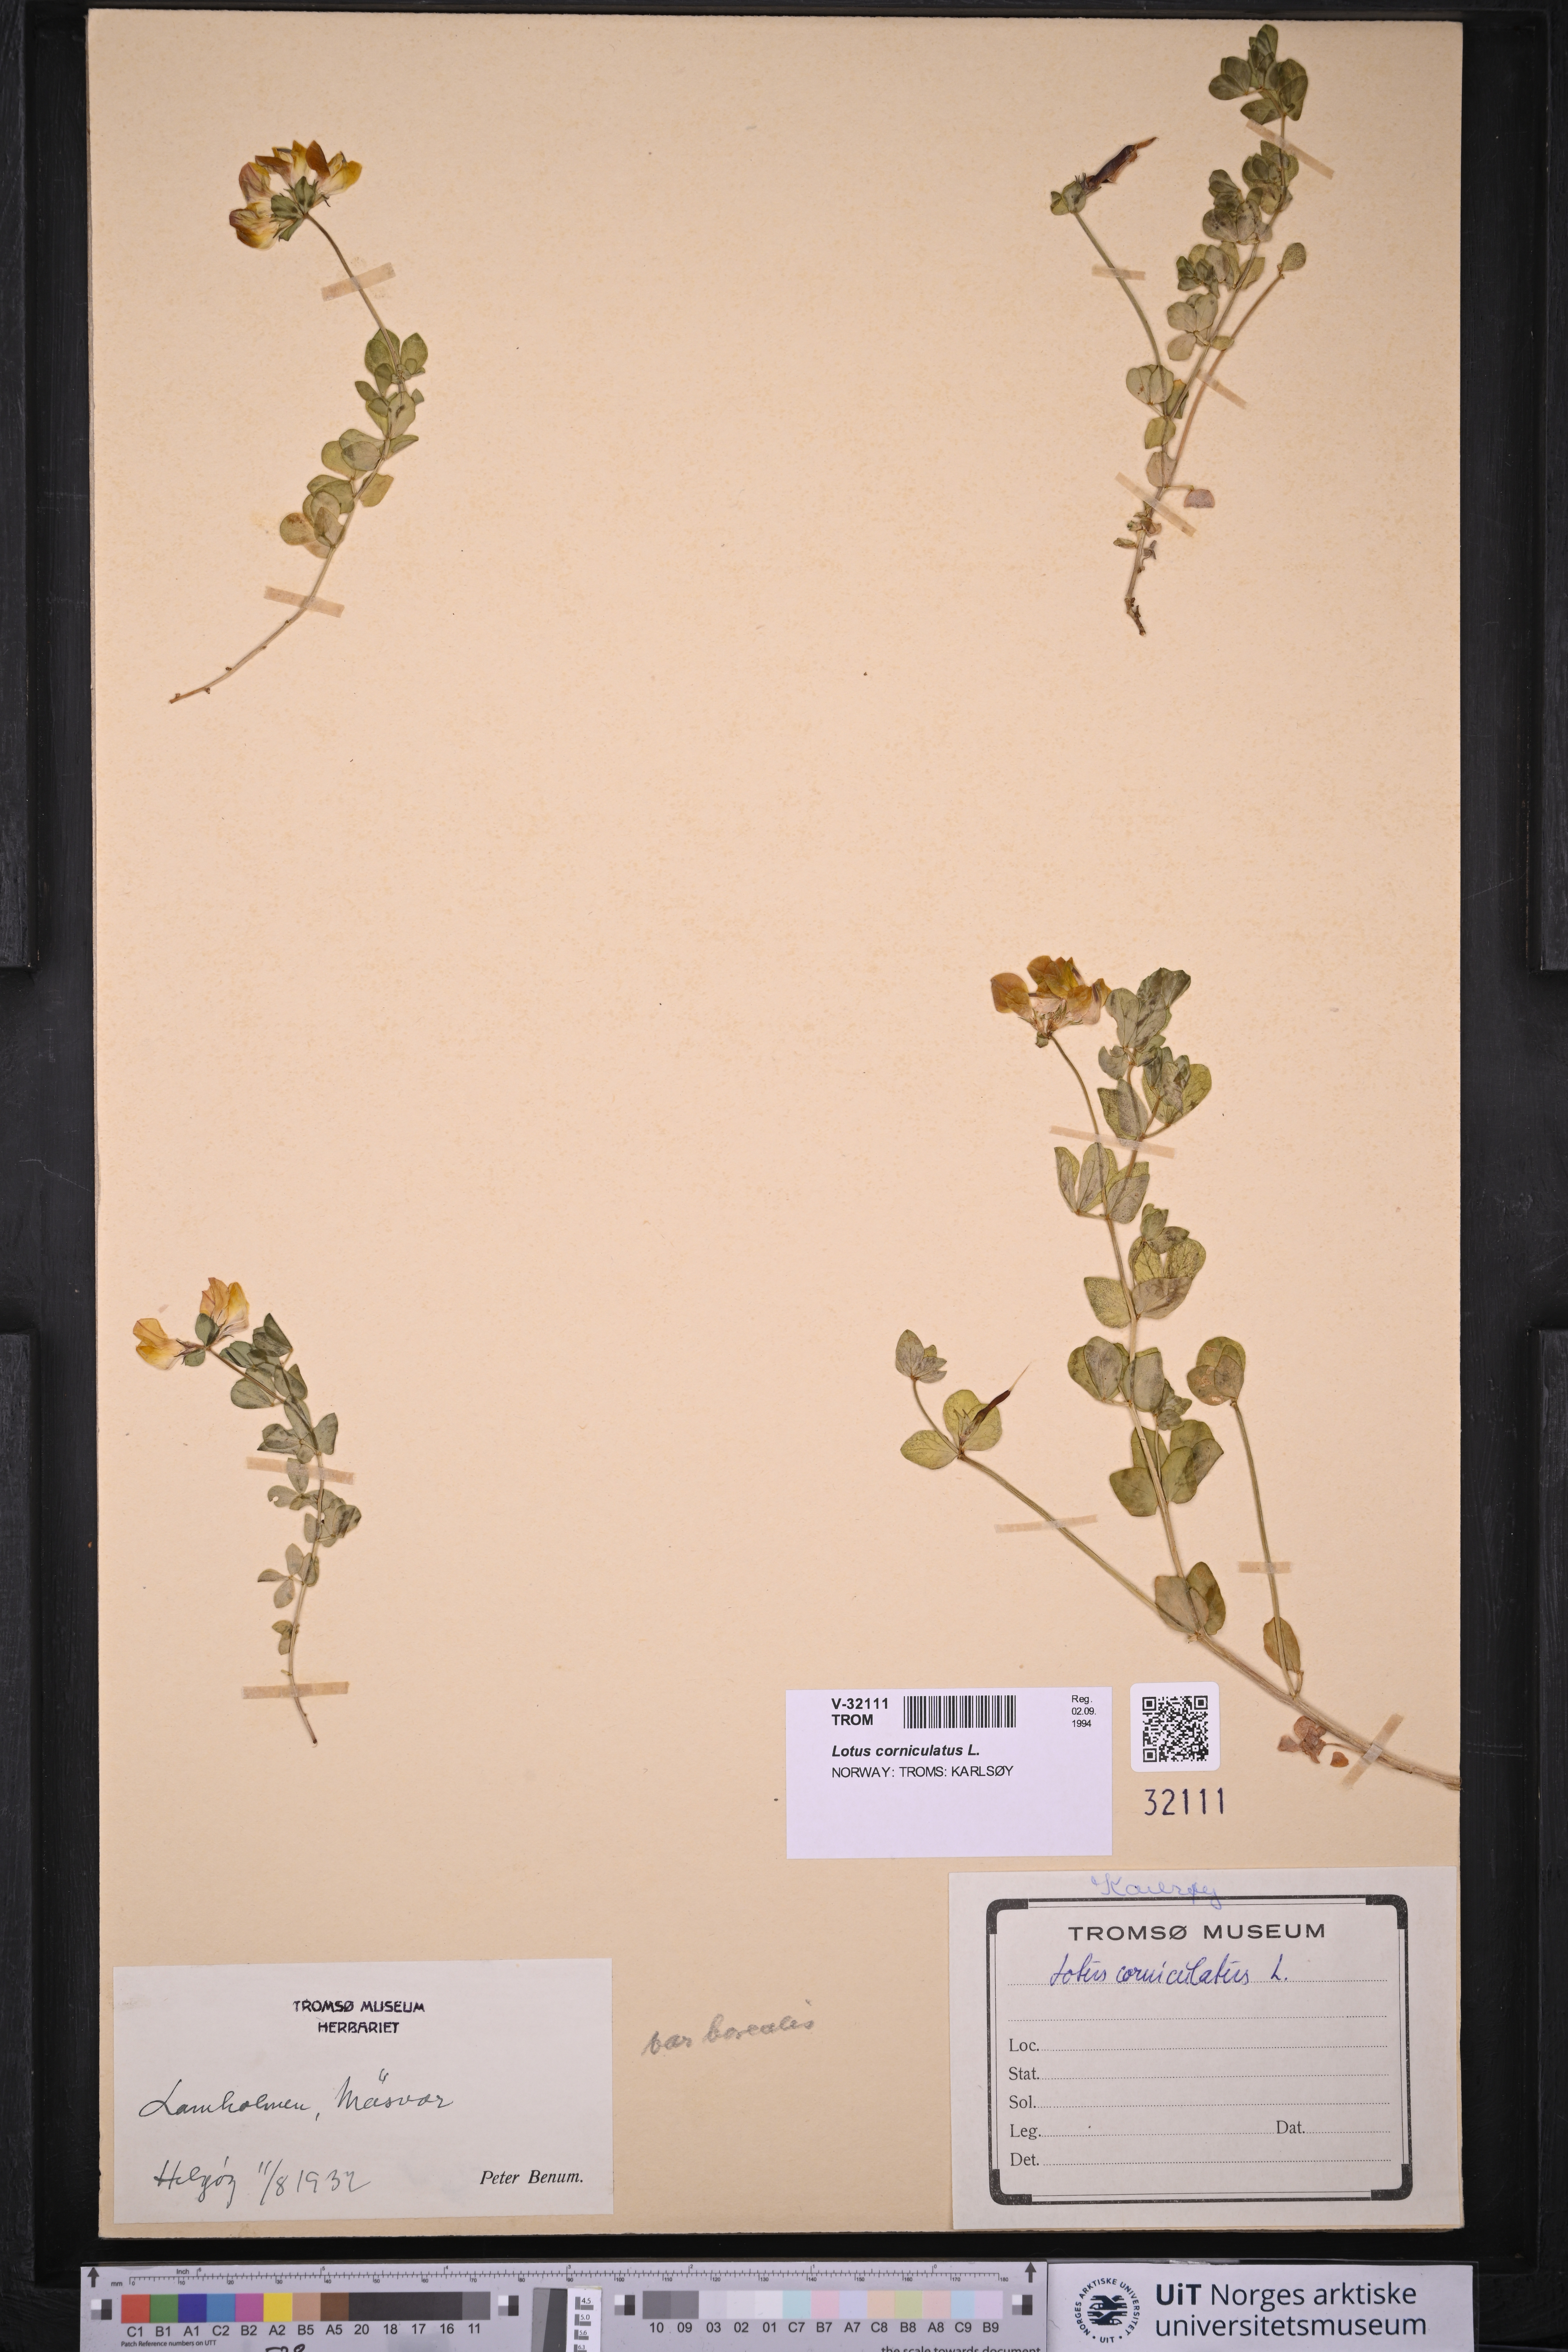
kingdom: Plantae
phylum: Tracheophyta
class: Magnoliopsida
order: Fabales
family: Fabaceae
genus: Lotus
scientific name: Lotus corniculatus
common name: Common bird's-foot-trefoil
